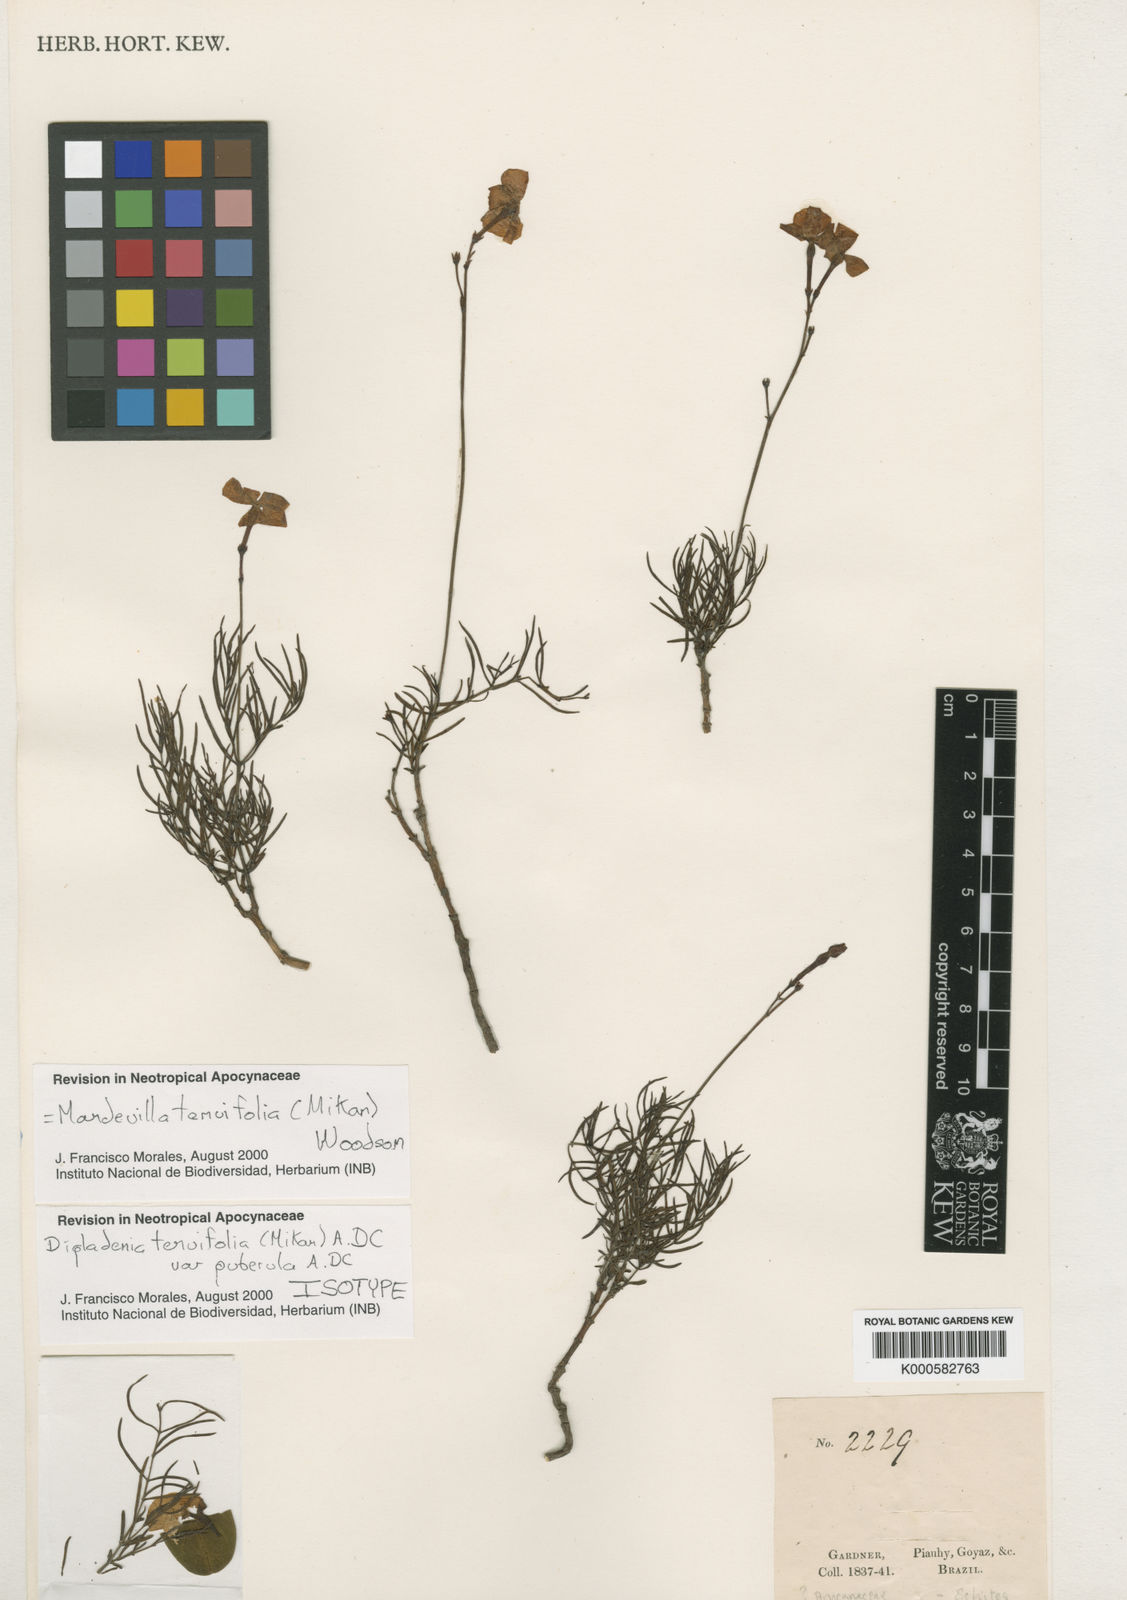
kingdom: Plantae
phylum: Tracheophyta
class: Magnoliopsida
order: Gentianales
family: Apocynaceae
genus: Mandevilla
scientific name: Mandevilla tenuifolia
